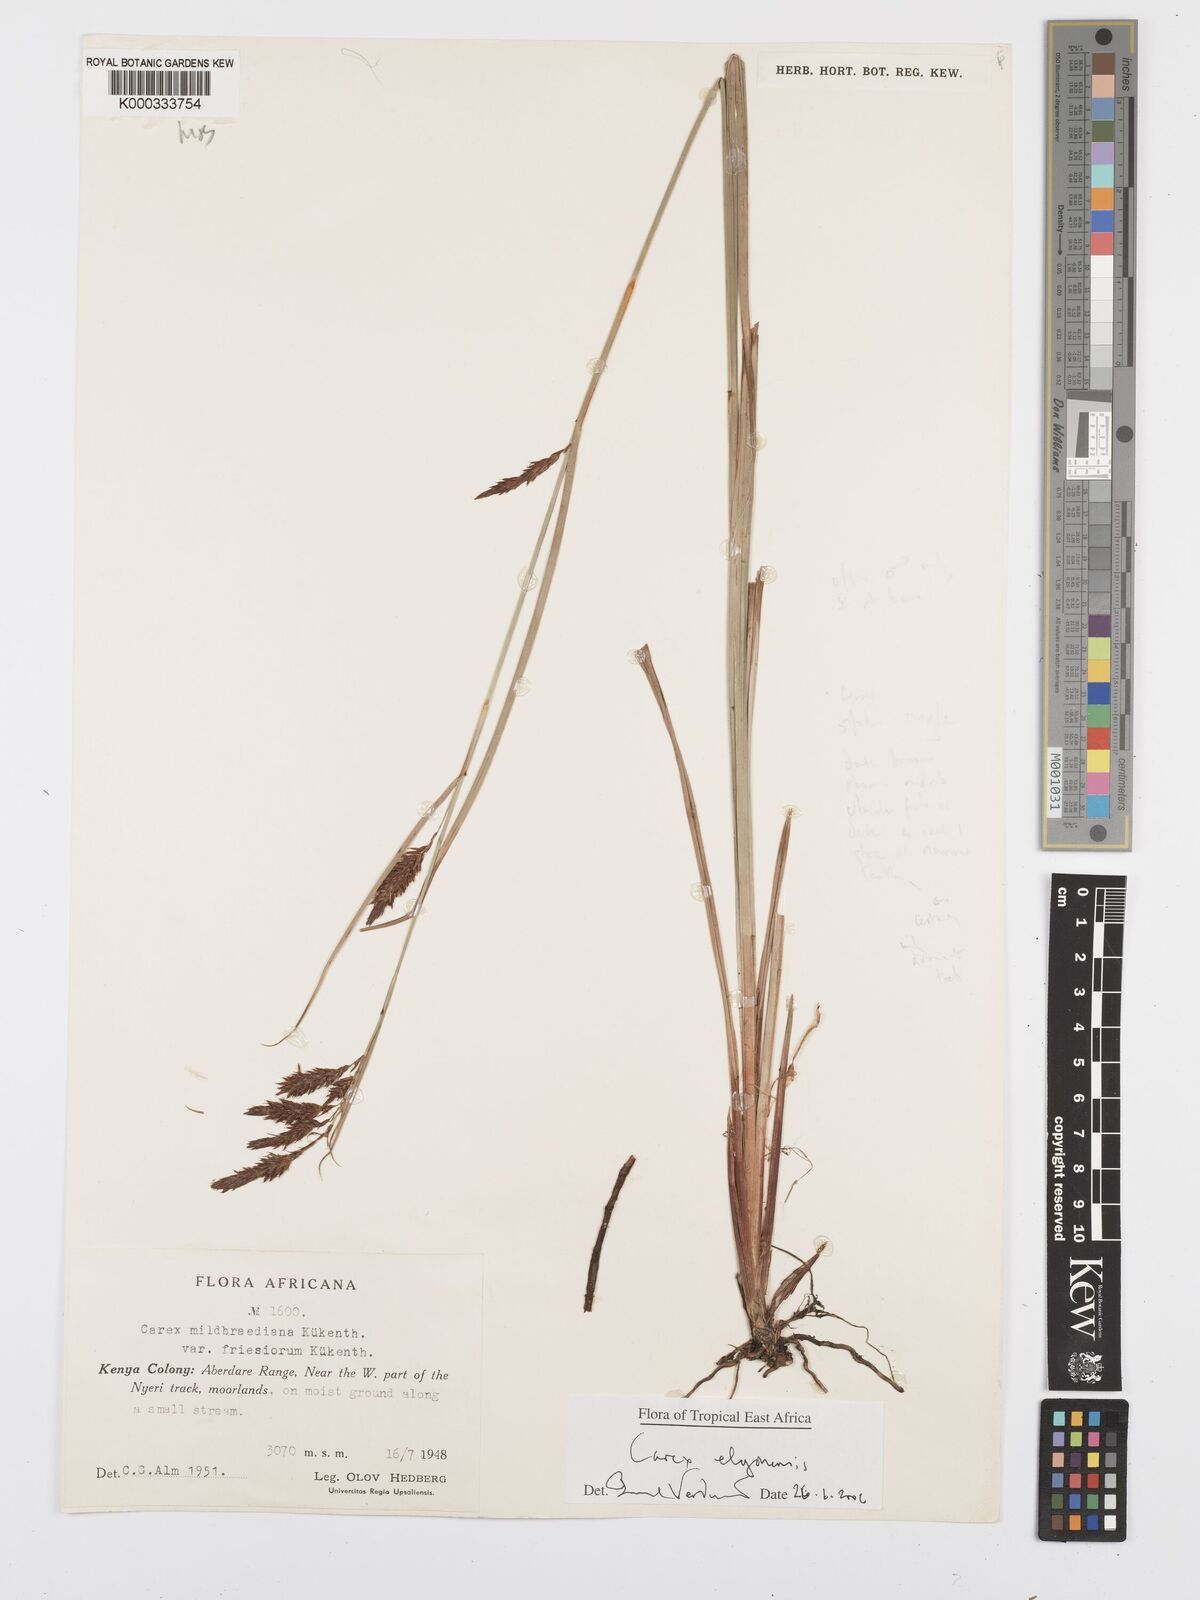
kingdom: Plantae
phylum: Tracheophyta
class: Liliopsida
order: Poales
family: Cyperaceae
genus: Carex
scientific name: Carex elgonensis
